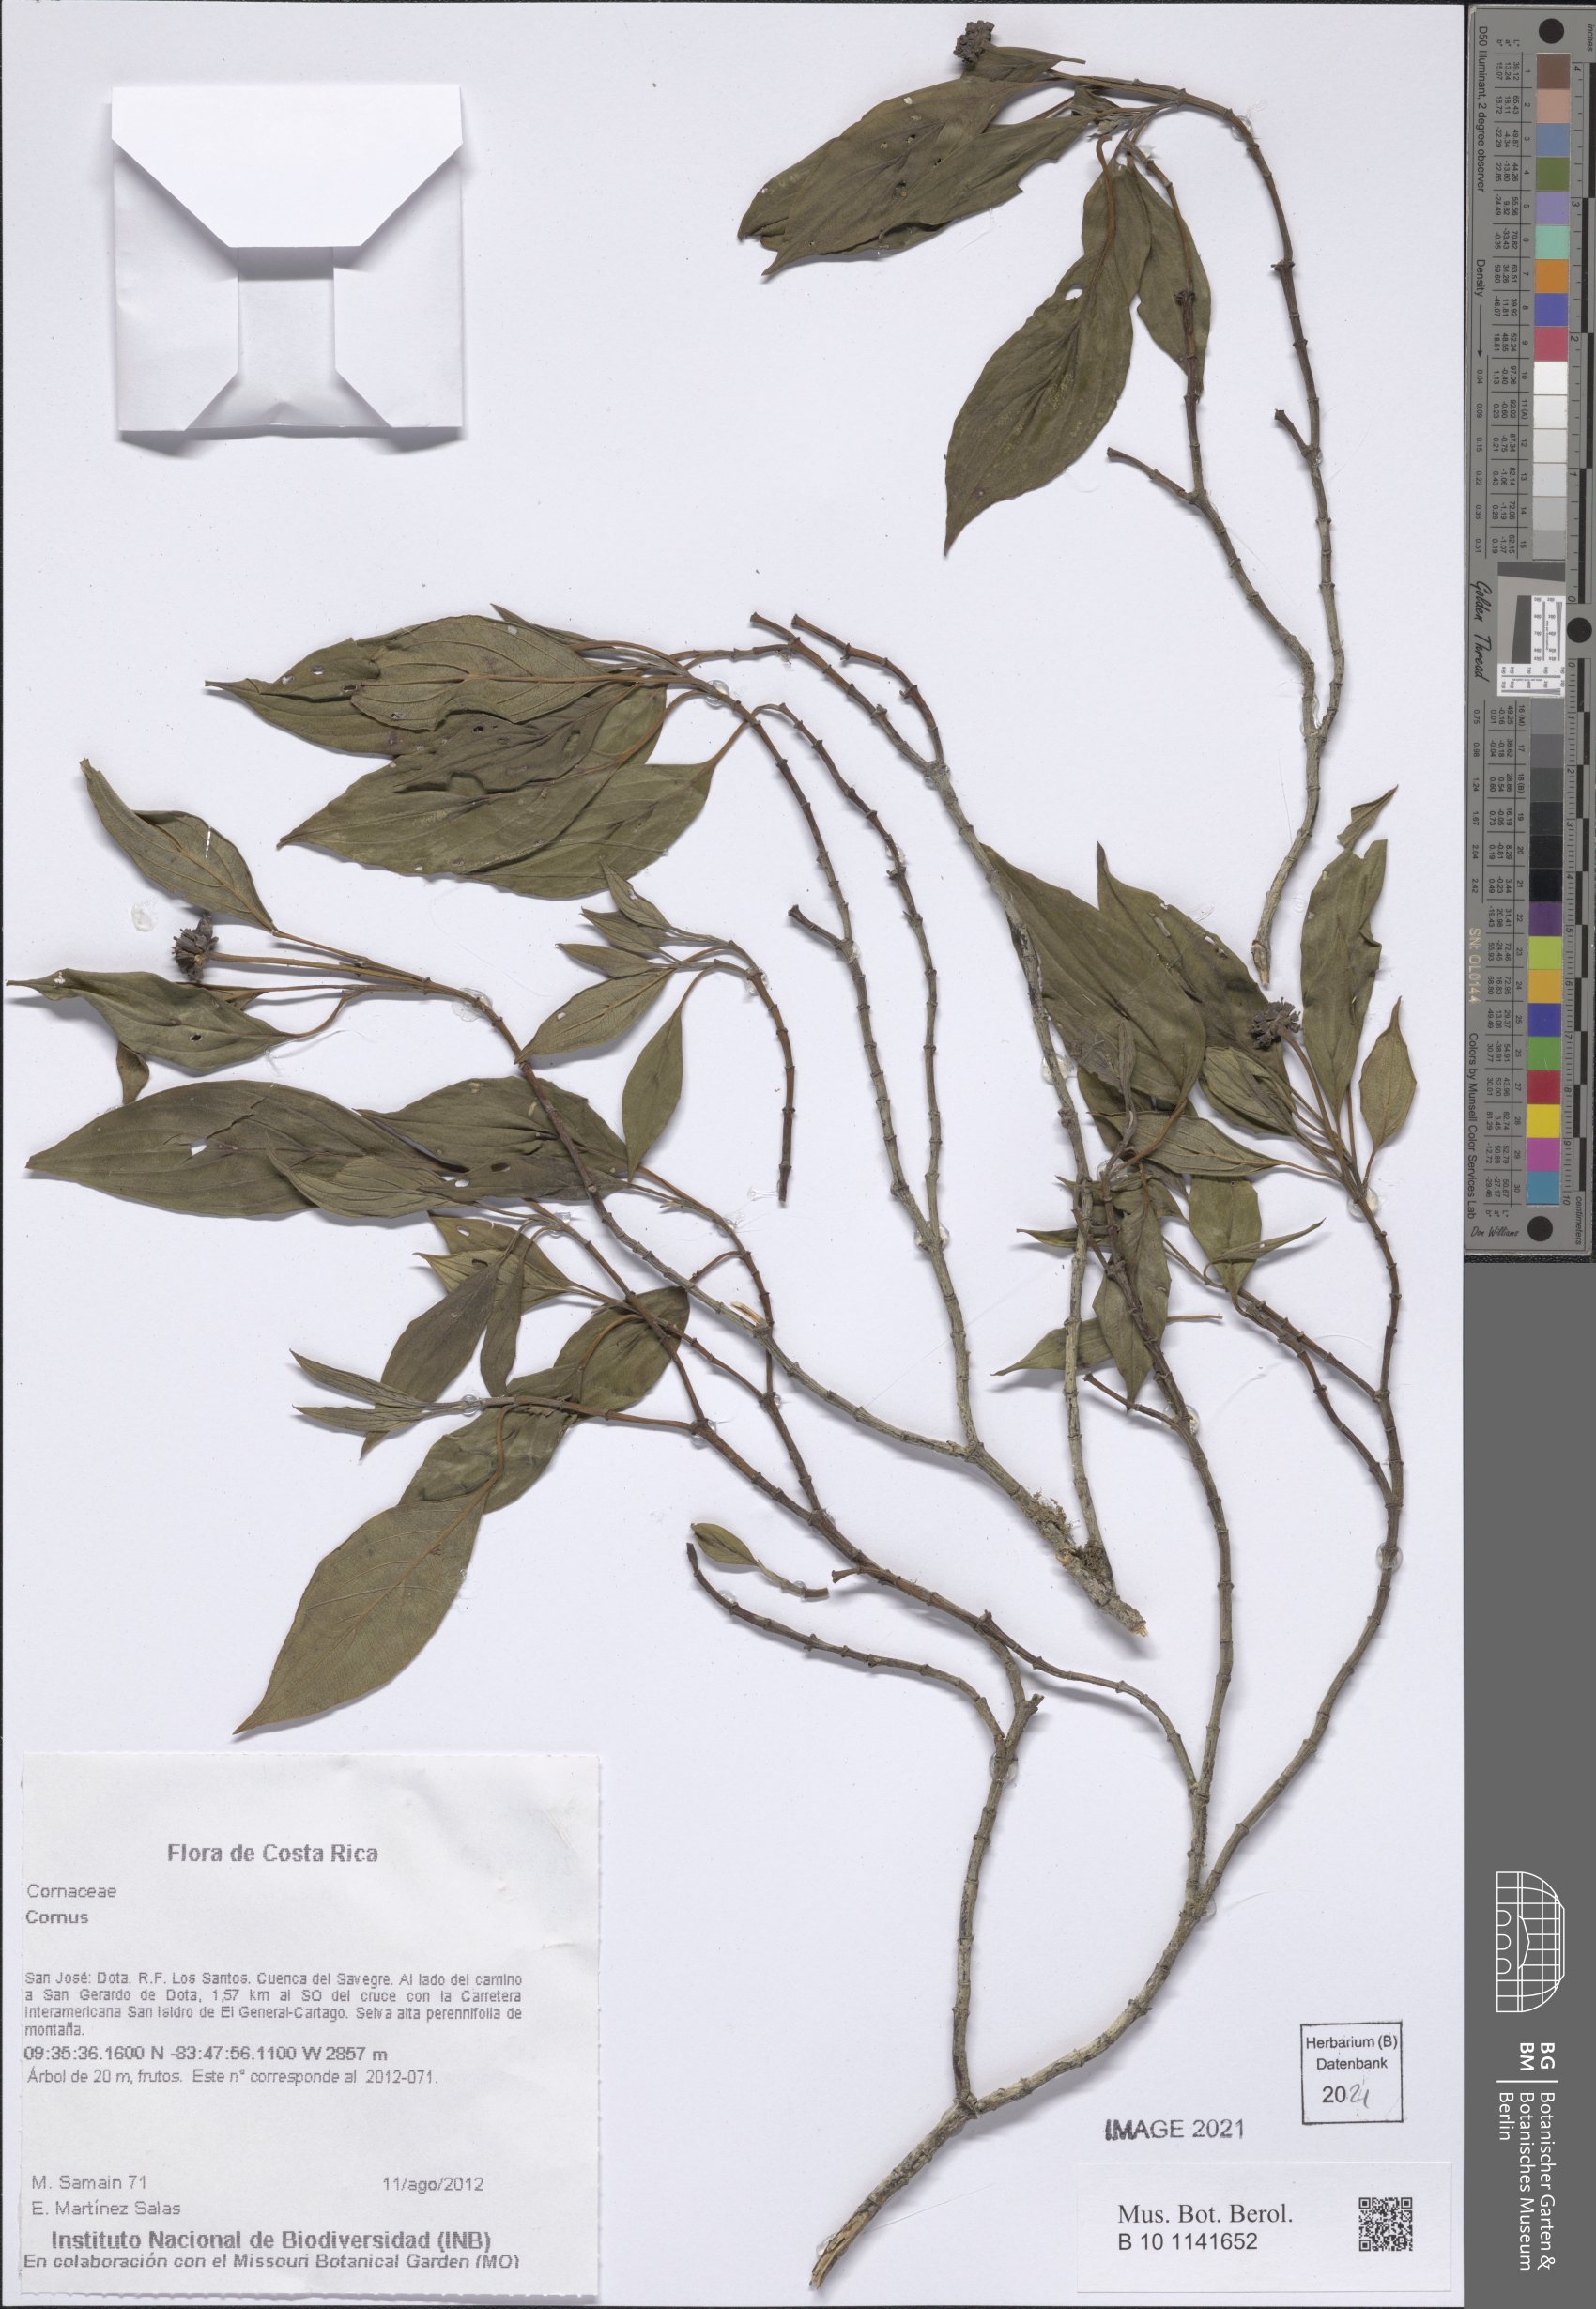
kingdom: Plantae
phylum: Tracheophyta
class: Magnoliopsida
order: Cornales
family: Cornaceae
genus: Cornus
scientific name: Cornus
